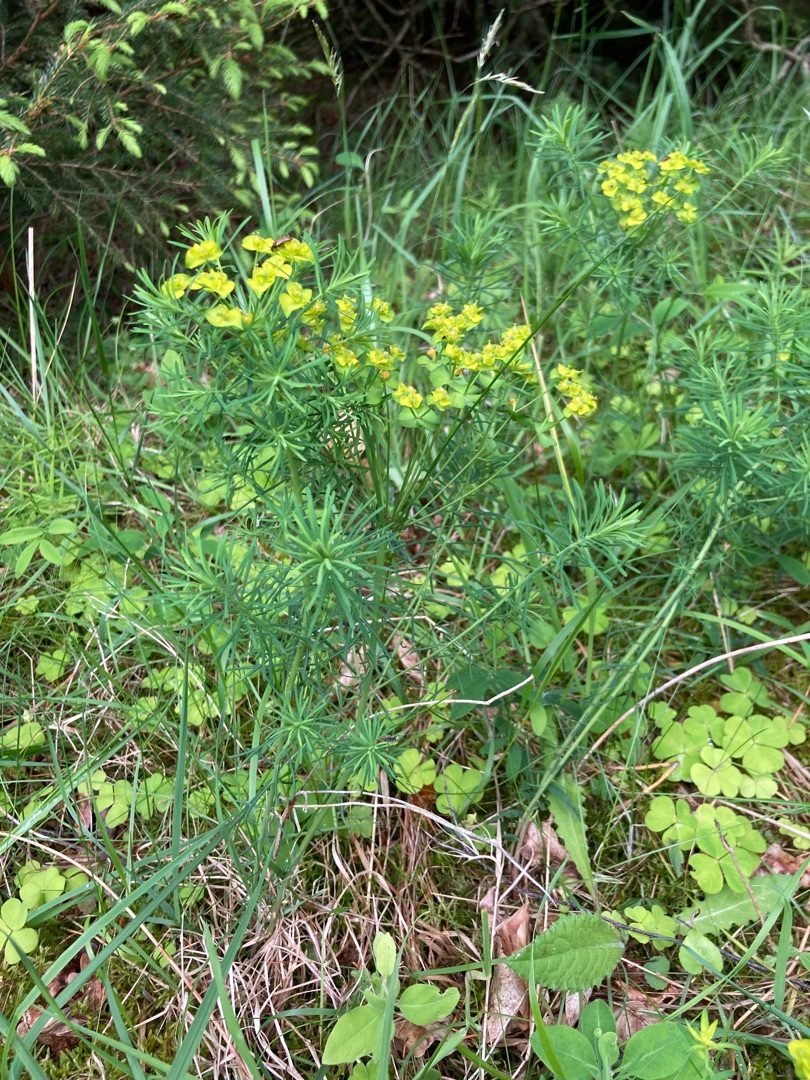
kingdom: Plantae
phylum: Tracheophyta
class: Magnoliopsida
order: Malpighiales
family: Euphorbiaceae
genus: Euphorbia
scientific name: Euphorbia cyparissias
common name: Cypres-vortemælk
